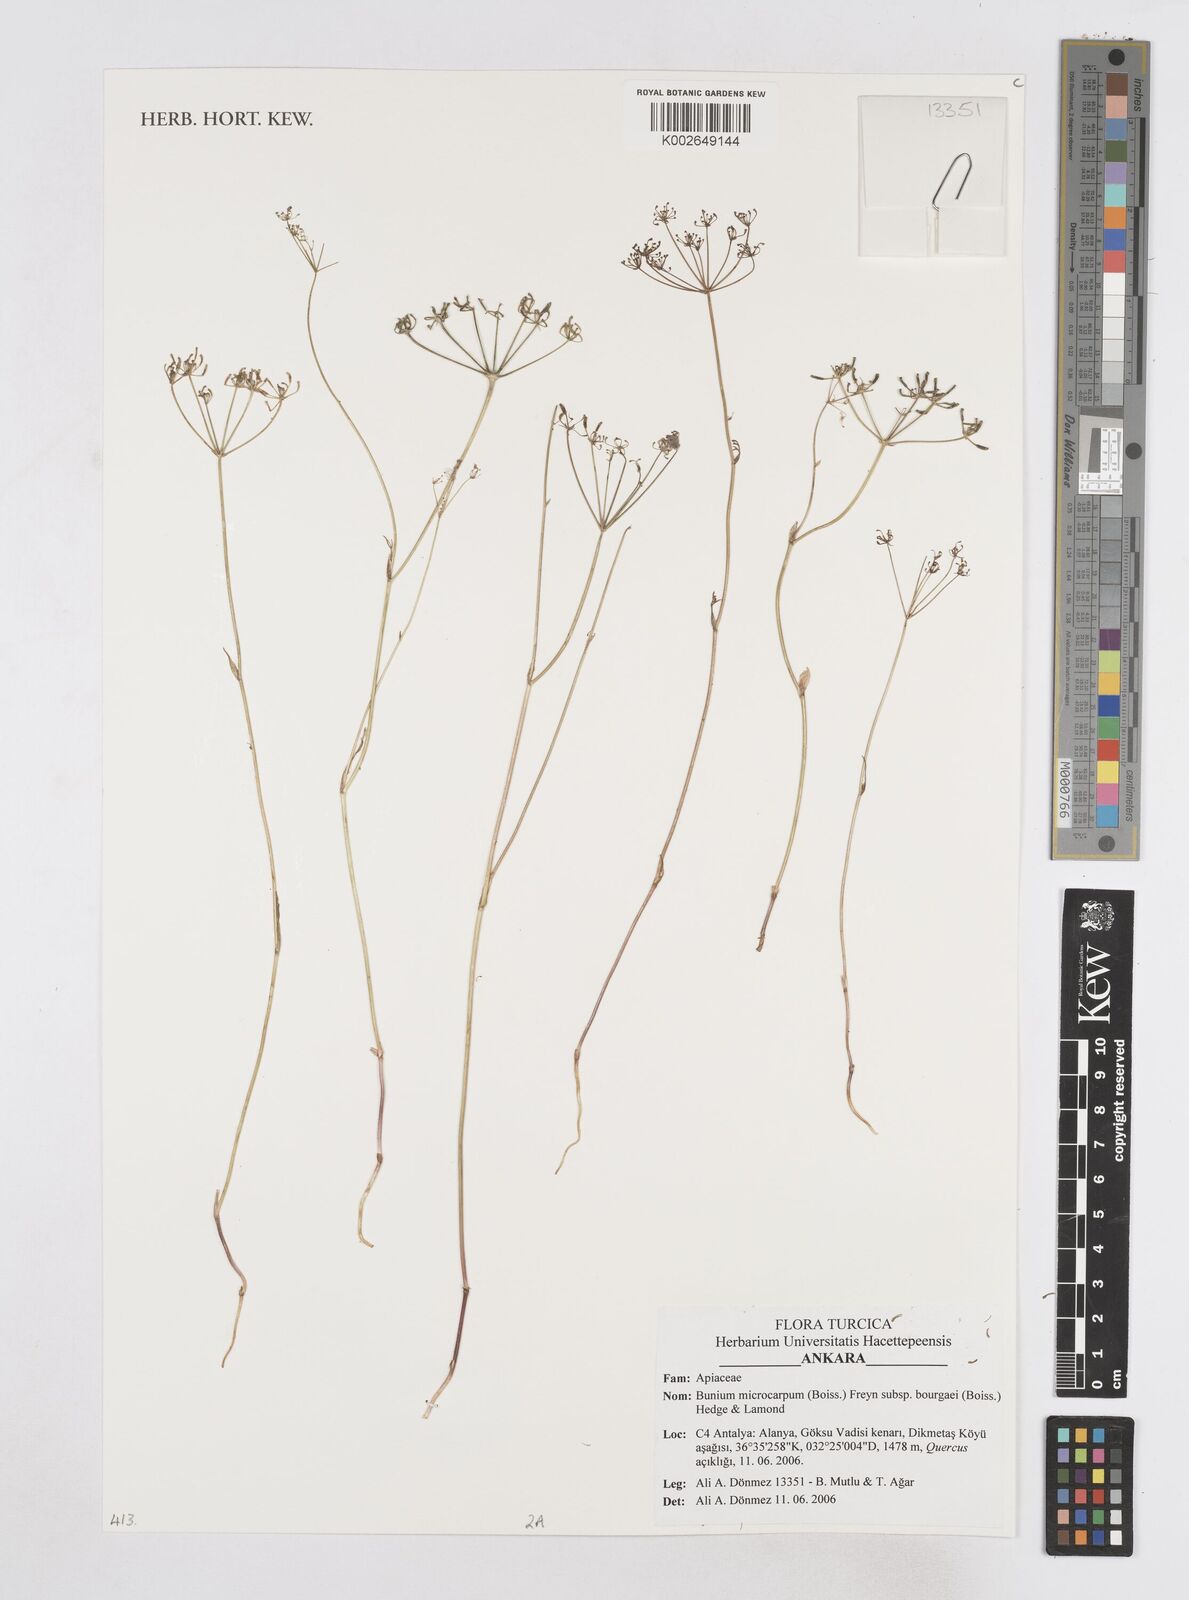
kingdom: Plantae
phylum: Tracheophyta
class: Magnoliopsida
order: Apiales
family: Apiaceae
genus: Bunium
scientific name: Bunium bourgaei
